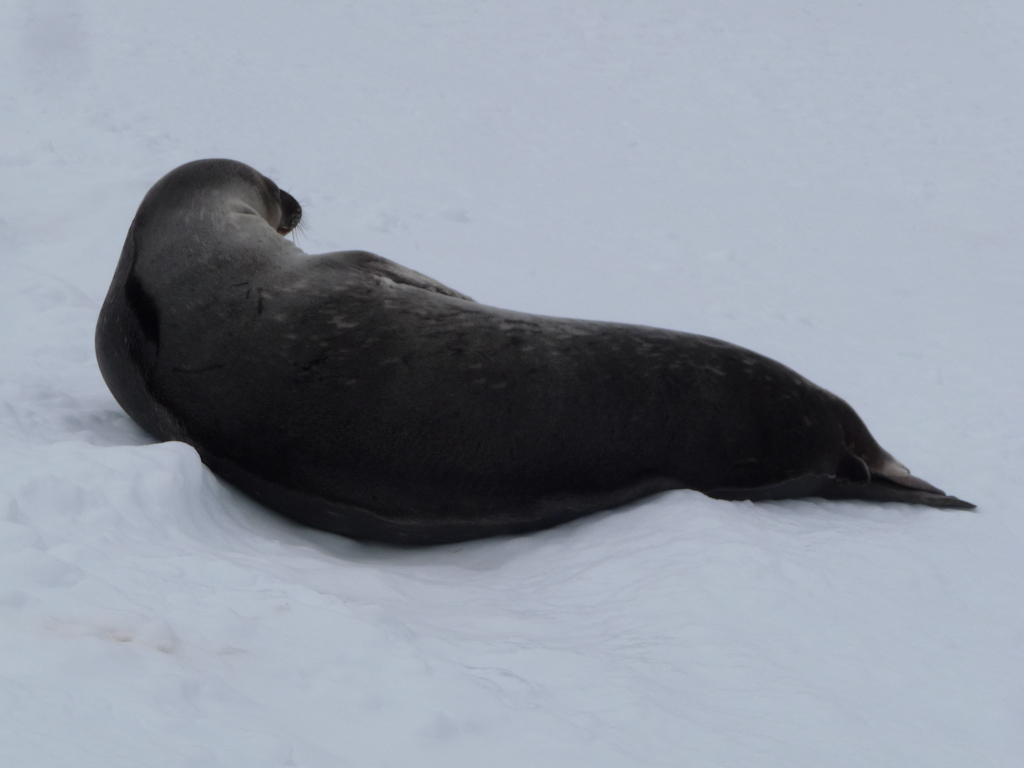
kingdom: Animalia
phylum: Chordata
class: Mammalia
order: Carnivora
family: Phocidae
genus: Leptonychotes
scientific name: Leptonychotes weddellii
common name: Weddell Seal
